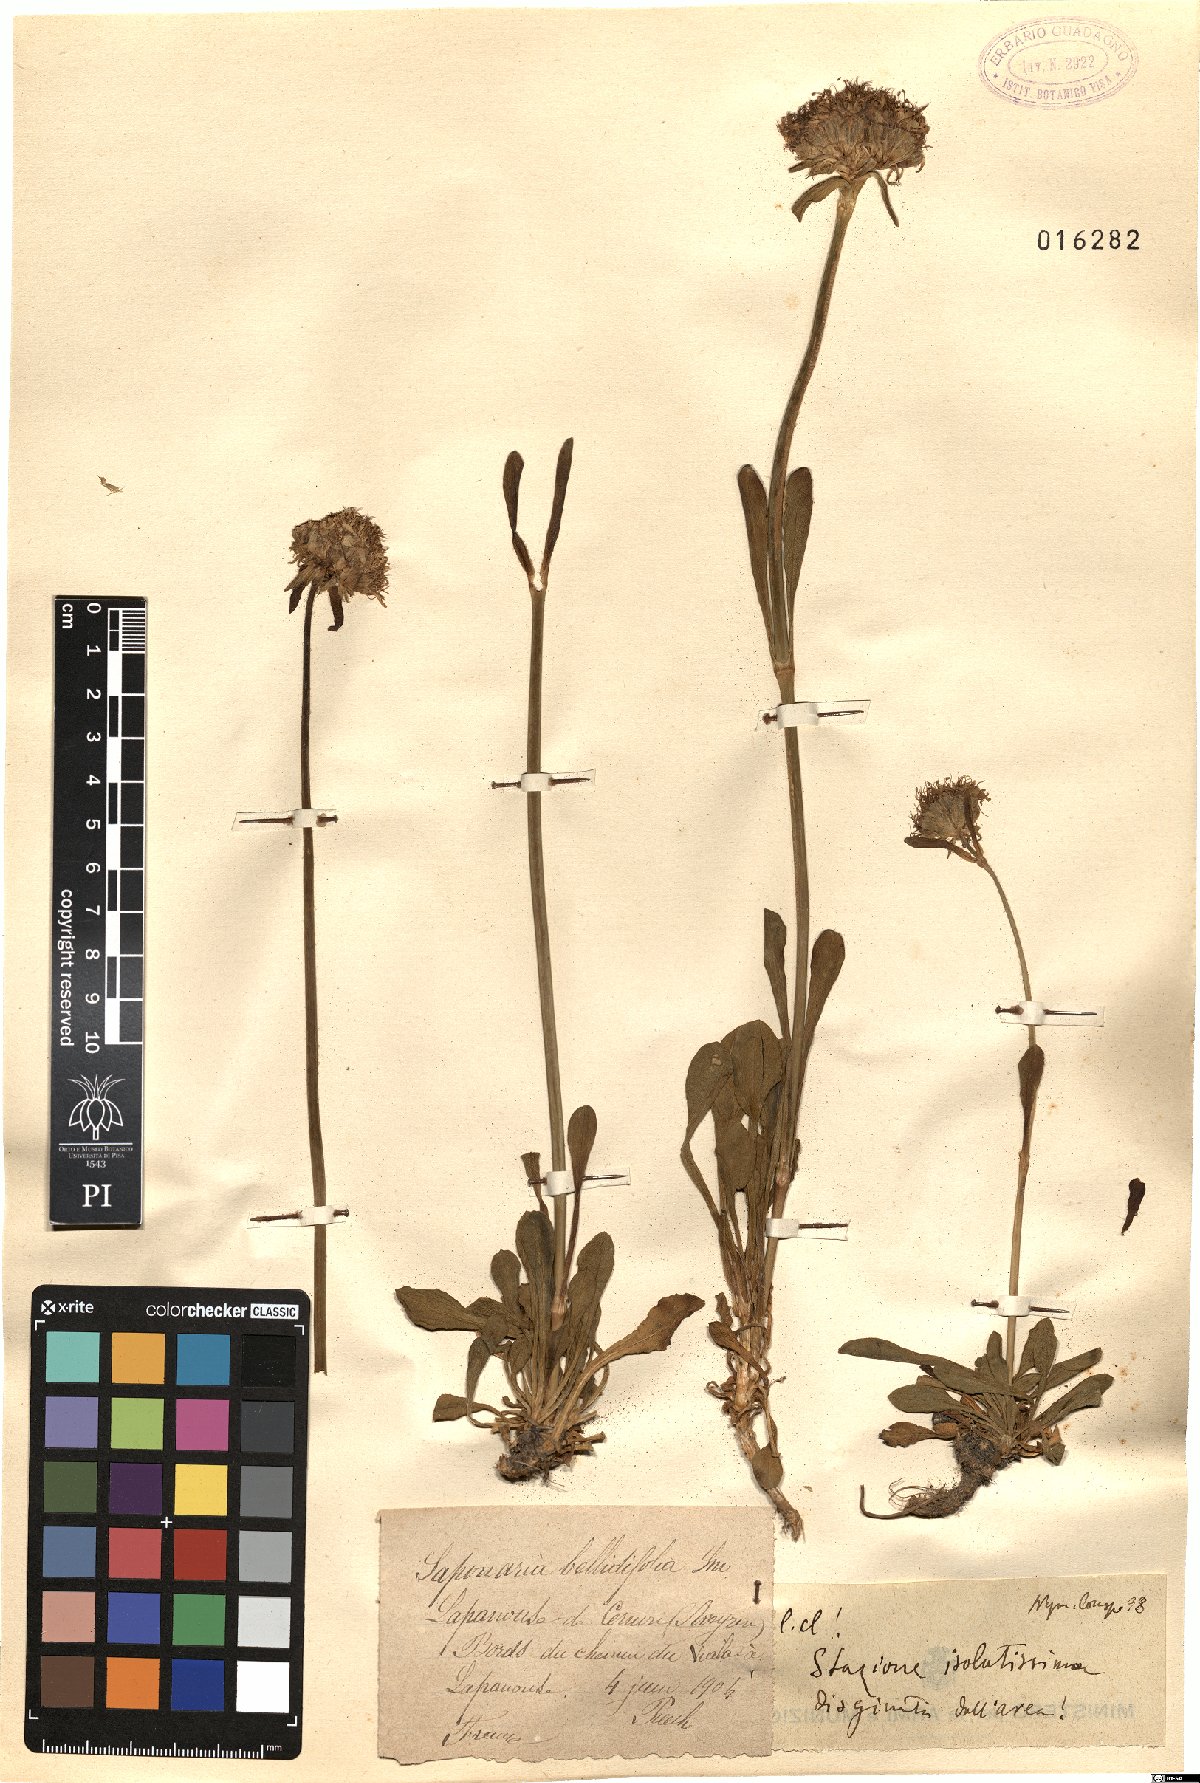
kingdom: Plantae
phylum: Tracheophyta
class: Magnoliopsida
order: Caryophyllales
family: Caryophyllaceae
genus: Saponaria
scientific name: Saponaria bellidifolia
